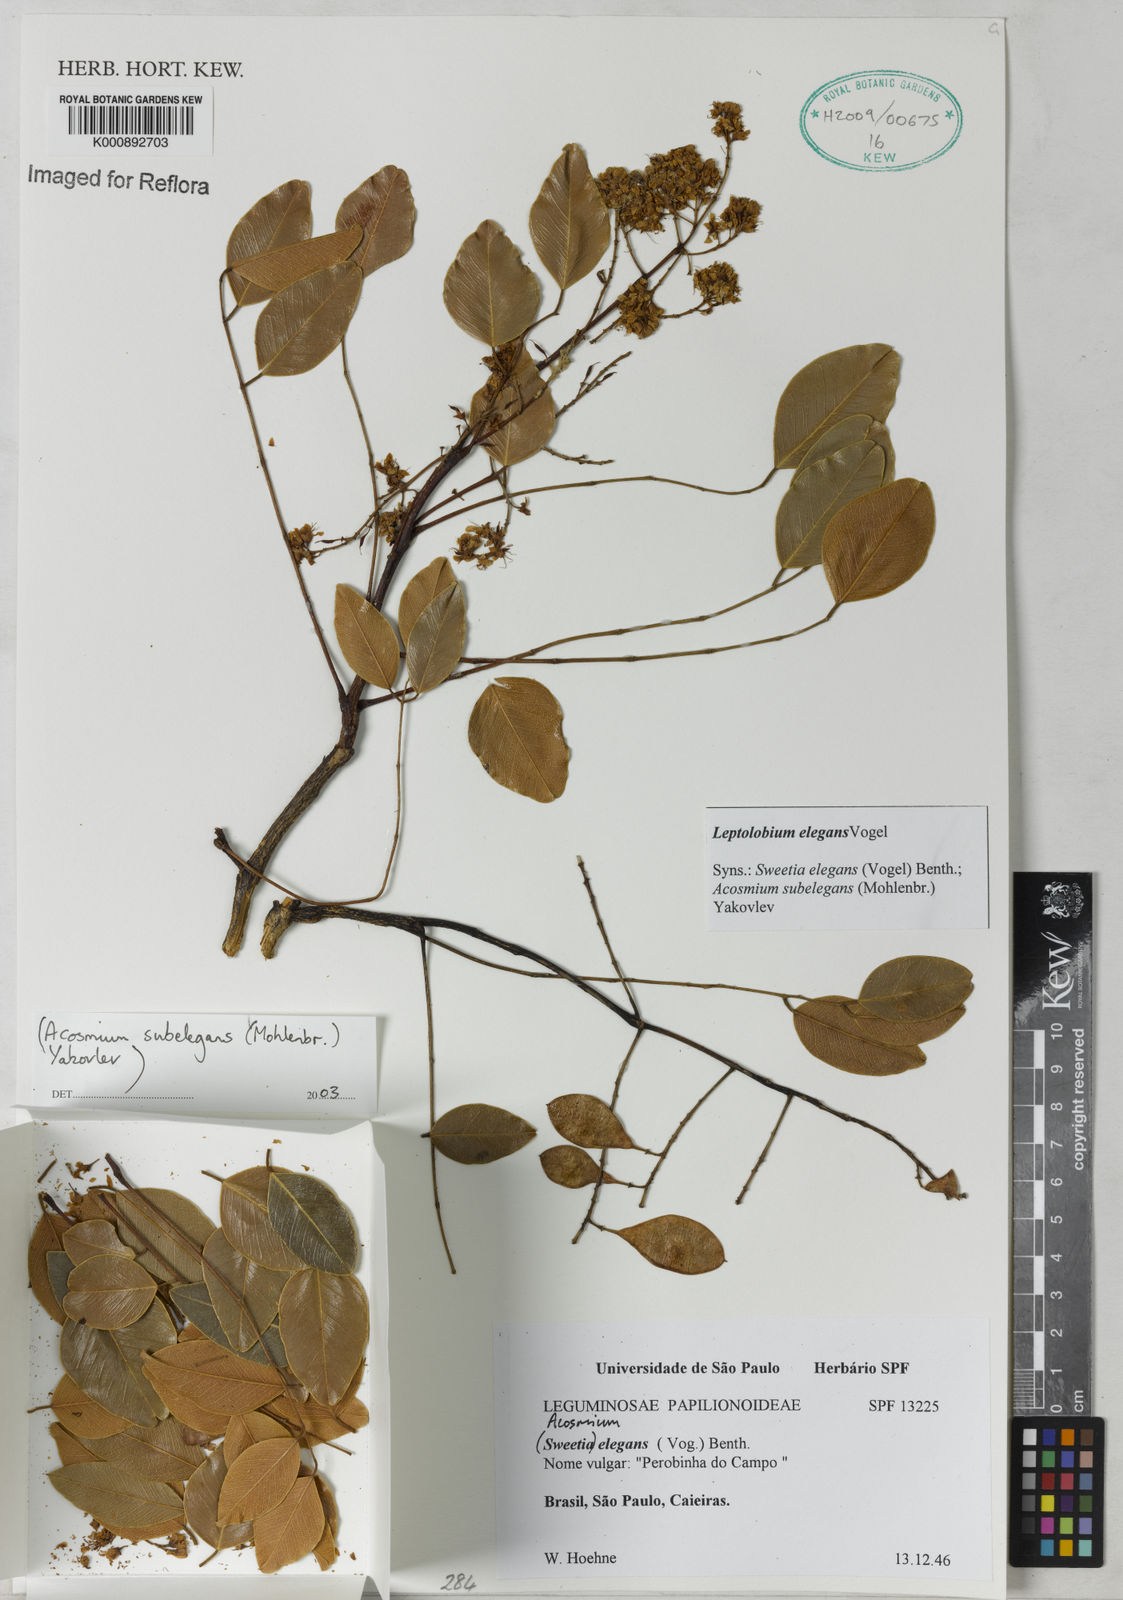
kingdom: Plantae
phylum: Tracheophyta
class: Magnoliopsida
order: Fabales
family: Fabaceae
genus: Leptolobium
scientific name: Leptolobium elegans
